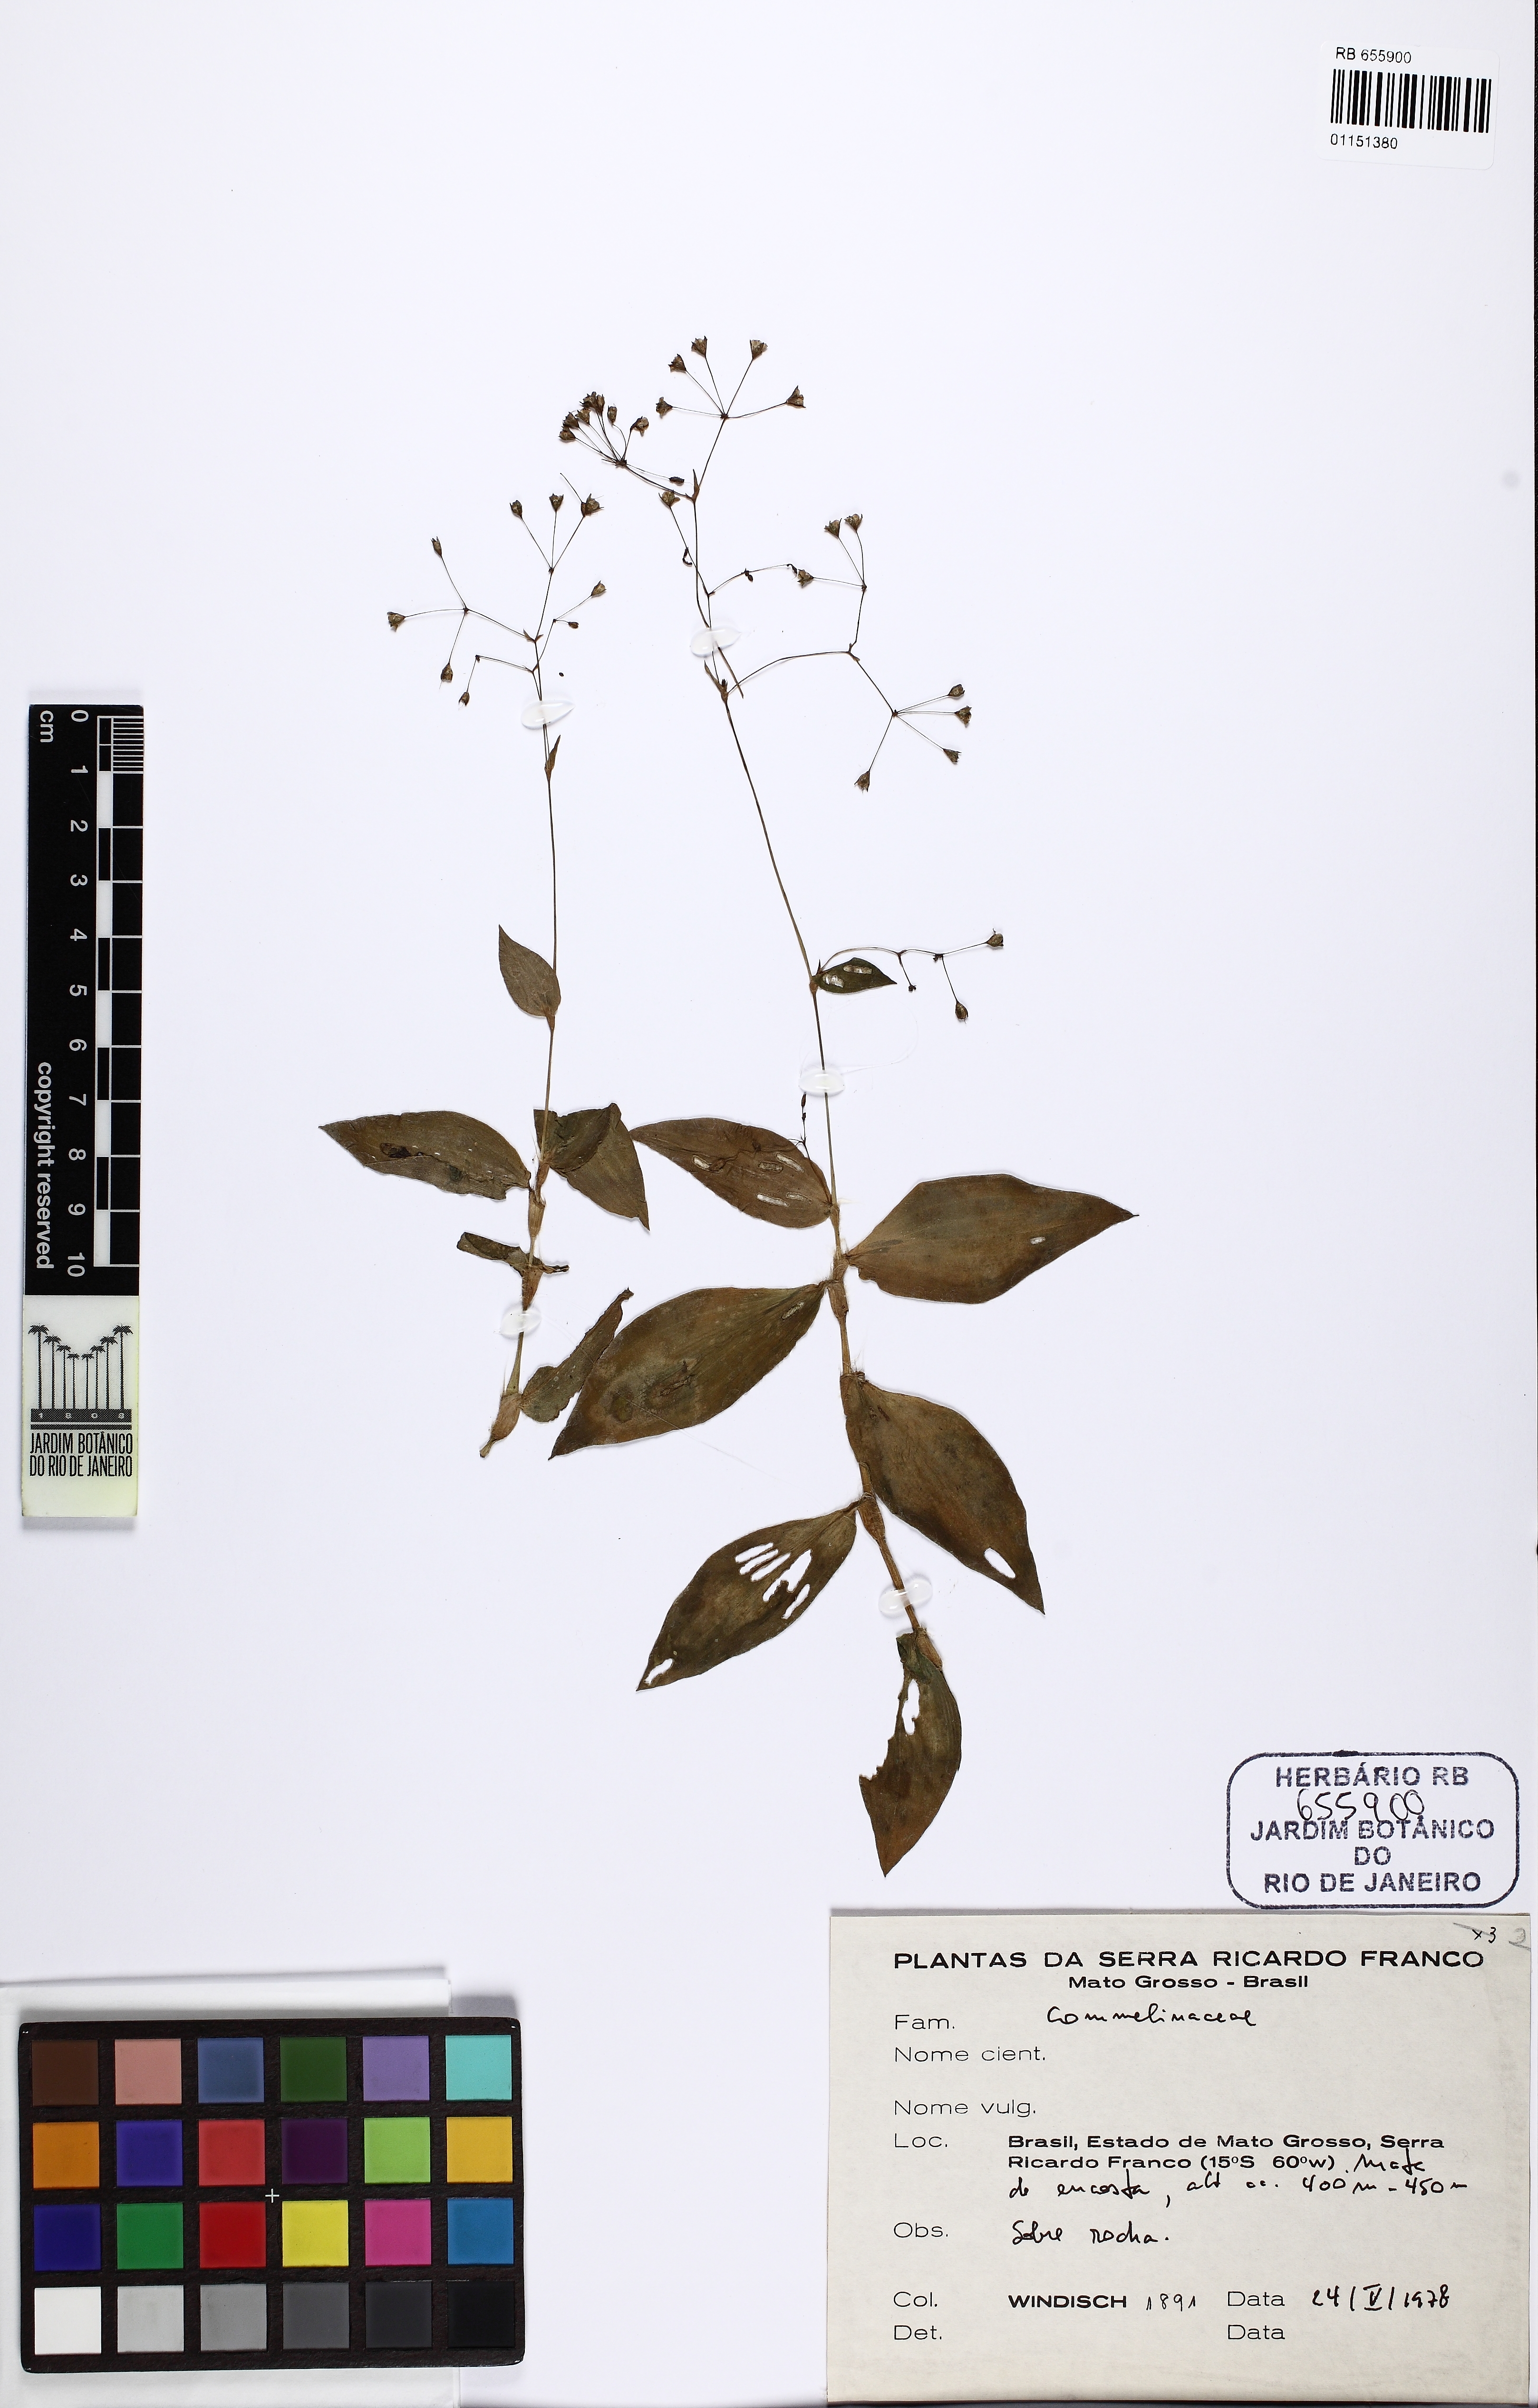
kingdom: Plantae
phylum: Tracheophyta
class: Liliopsida
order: Commelinales
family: Commelinaceae
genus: Gibasis
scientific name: Gibasis geniculata
